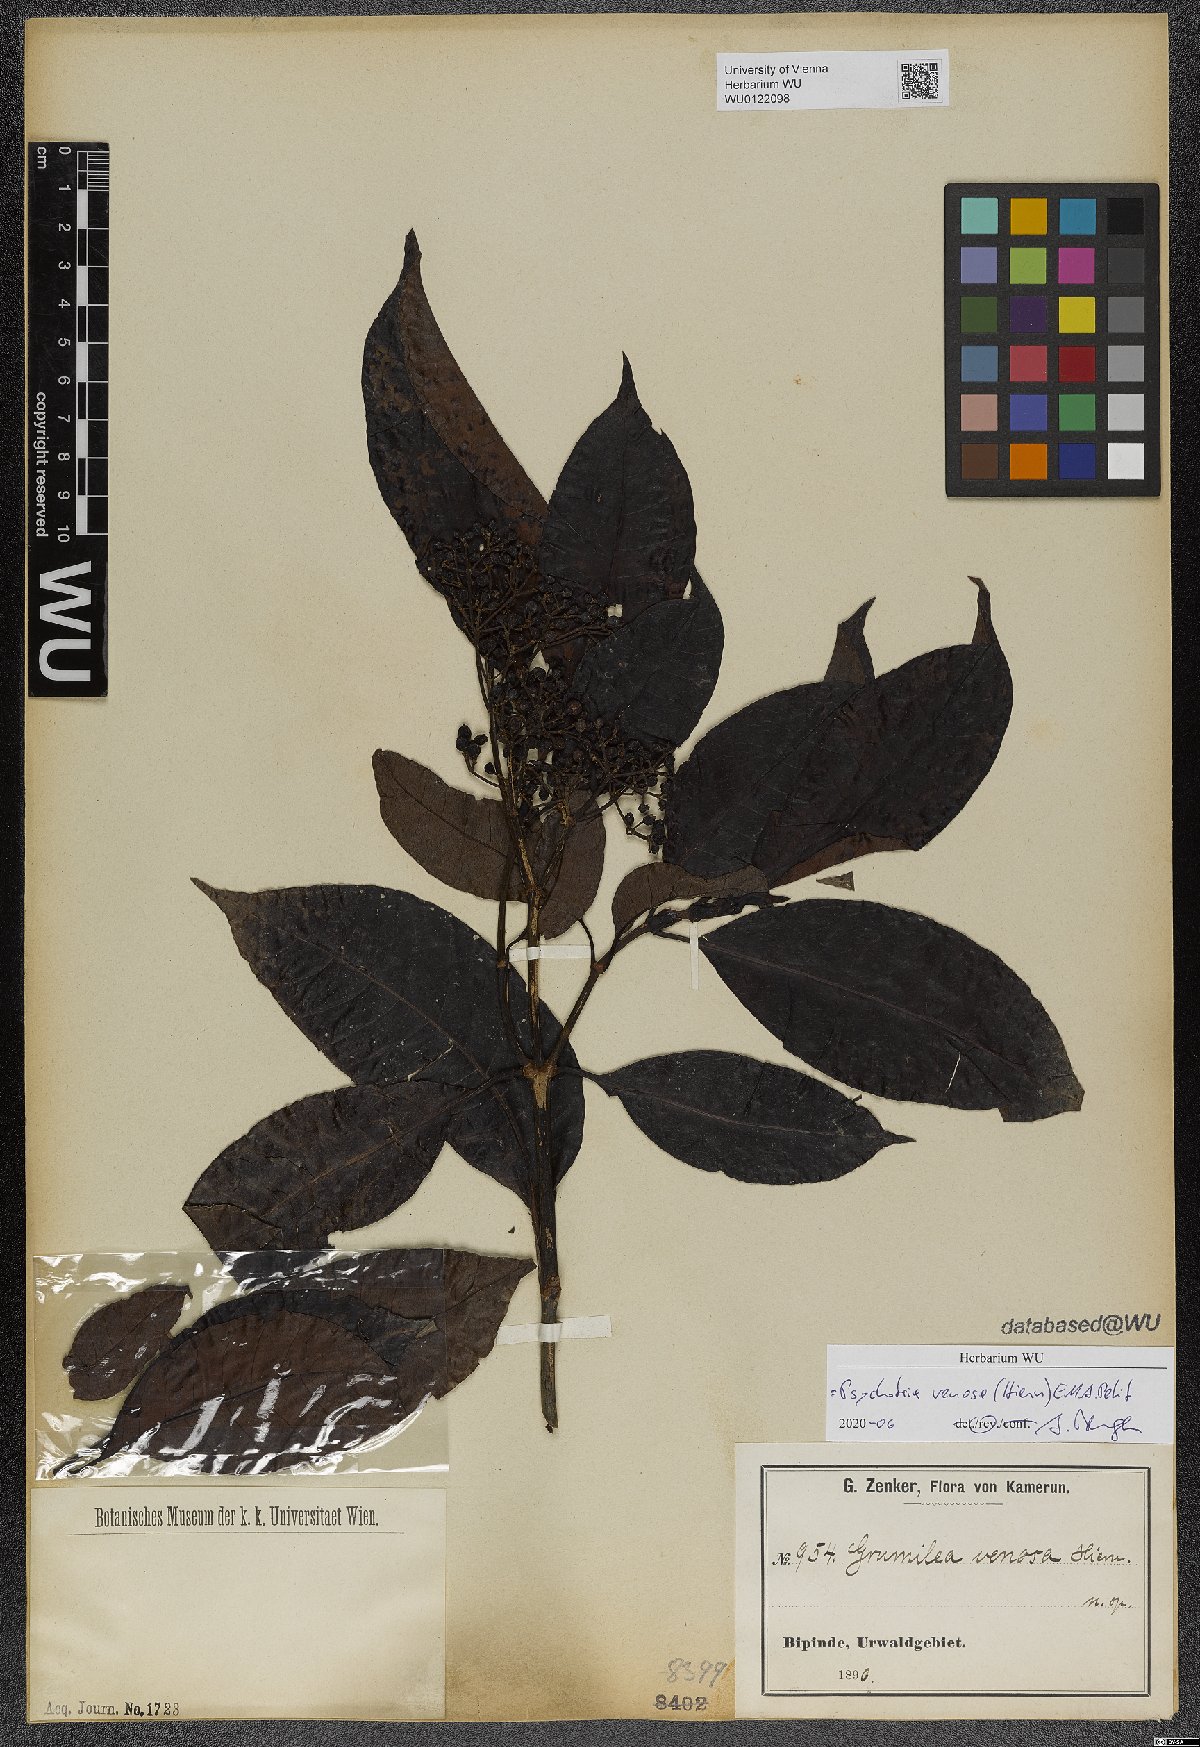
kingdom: Plantae
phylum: Tracheophyta
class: Magnoliopsida
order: Gentianales
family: Rubiaceae
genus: Psychotria
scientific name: Psychotria venosa
